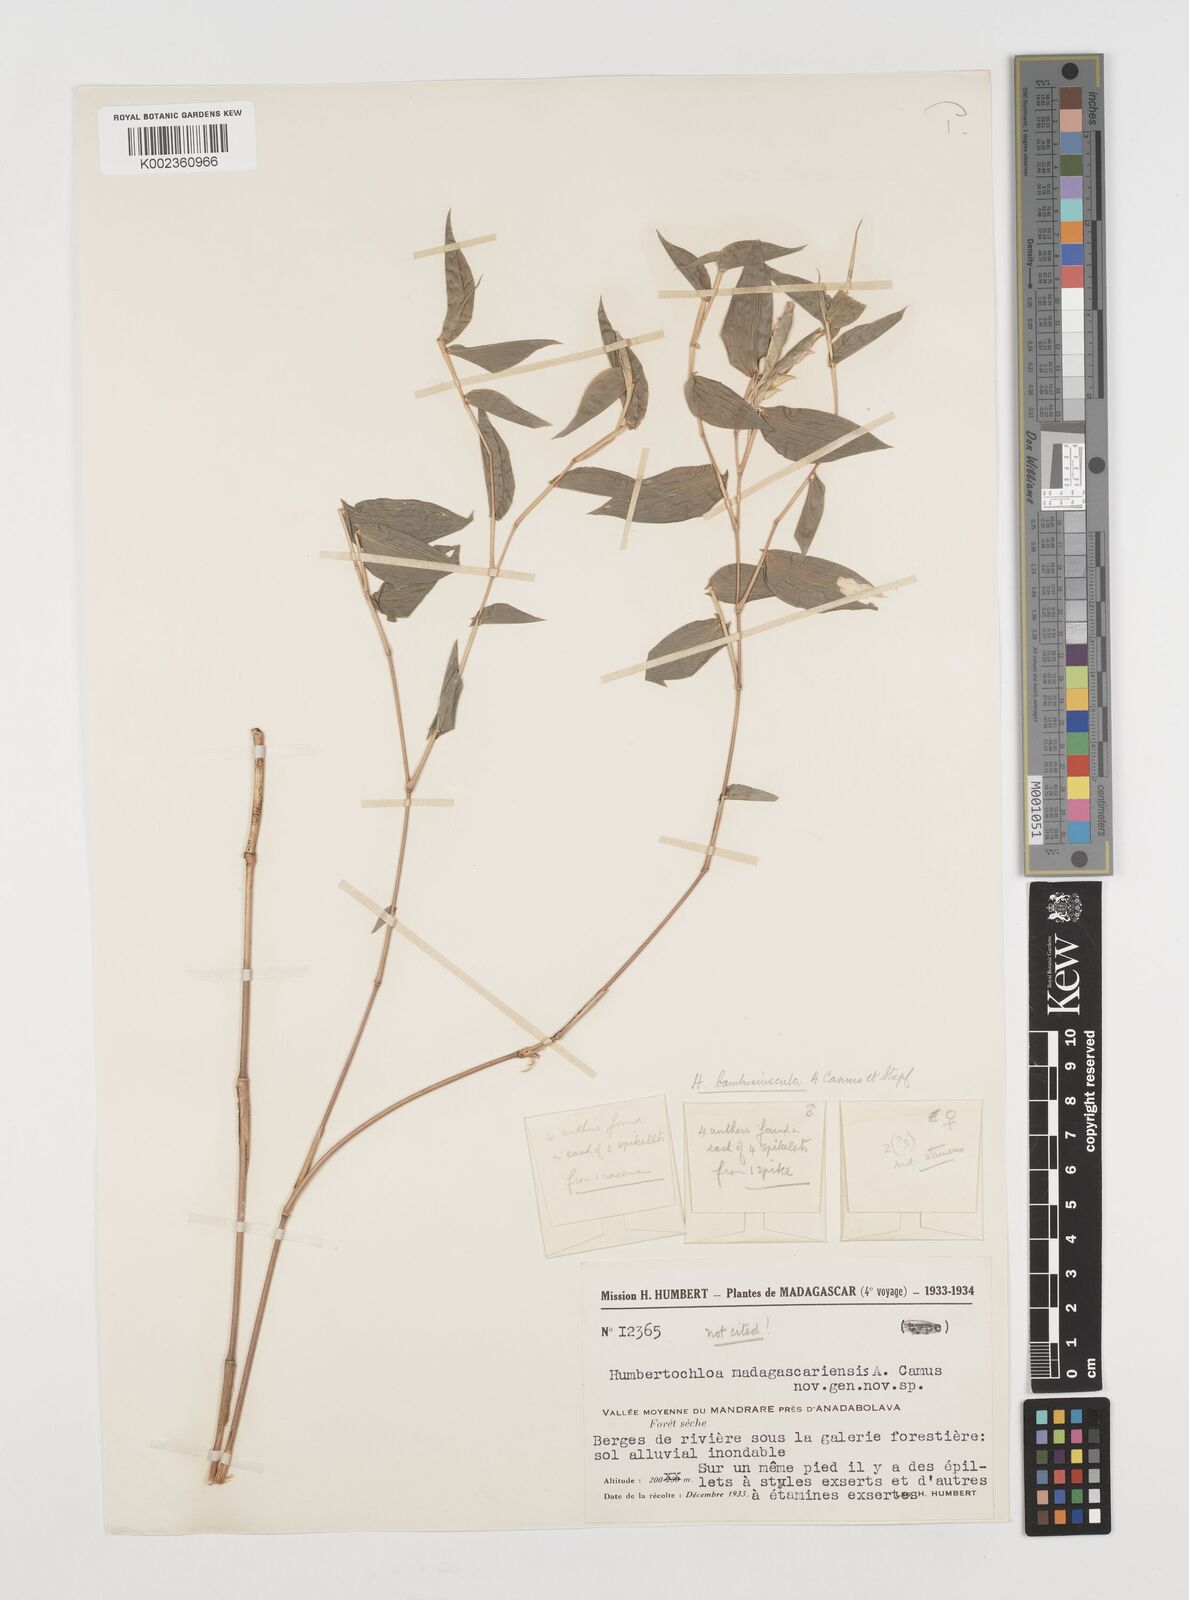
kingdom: Plantae
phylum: Tracheophyta
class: Liliopsida
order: Poales
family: Poaceae
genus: Humbertochloa
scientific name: Humbertochloa bambusiuscula
